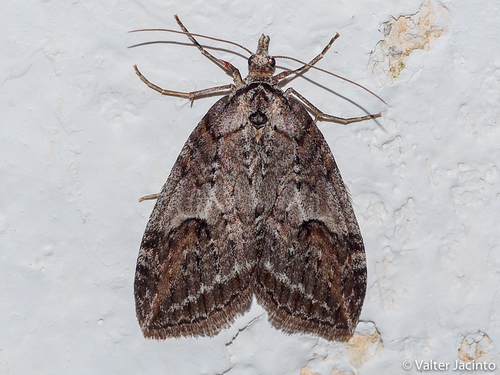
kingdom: Animalia
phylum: Arthropoda
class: Insecta
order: Lepidoptera
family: Geometridae
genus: Chesias
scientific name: Chesias rufata
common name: Broom-tip
